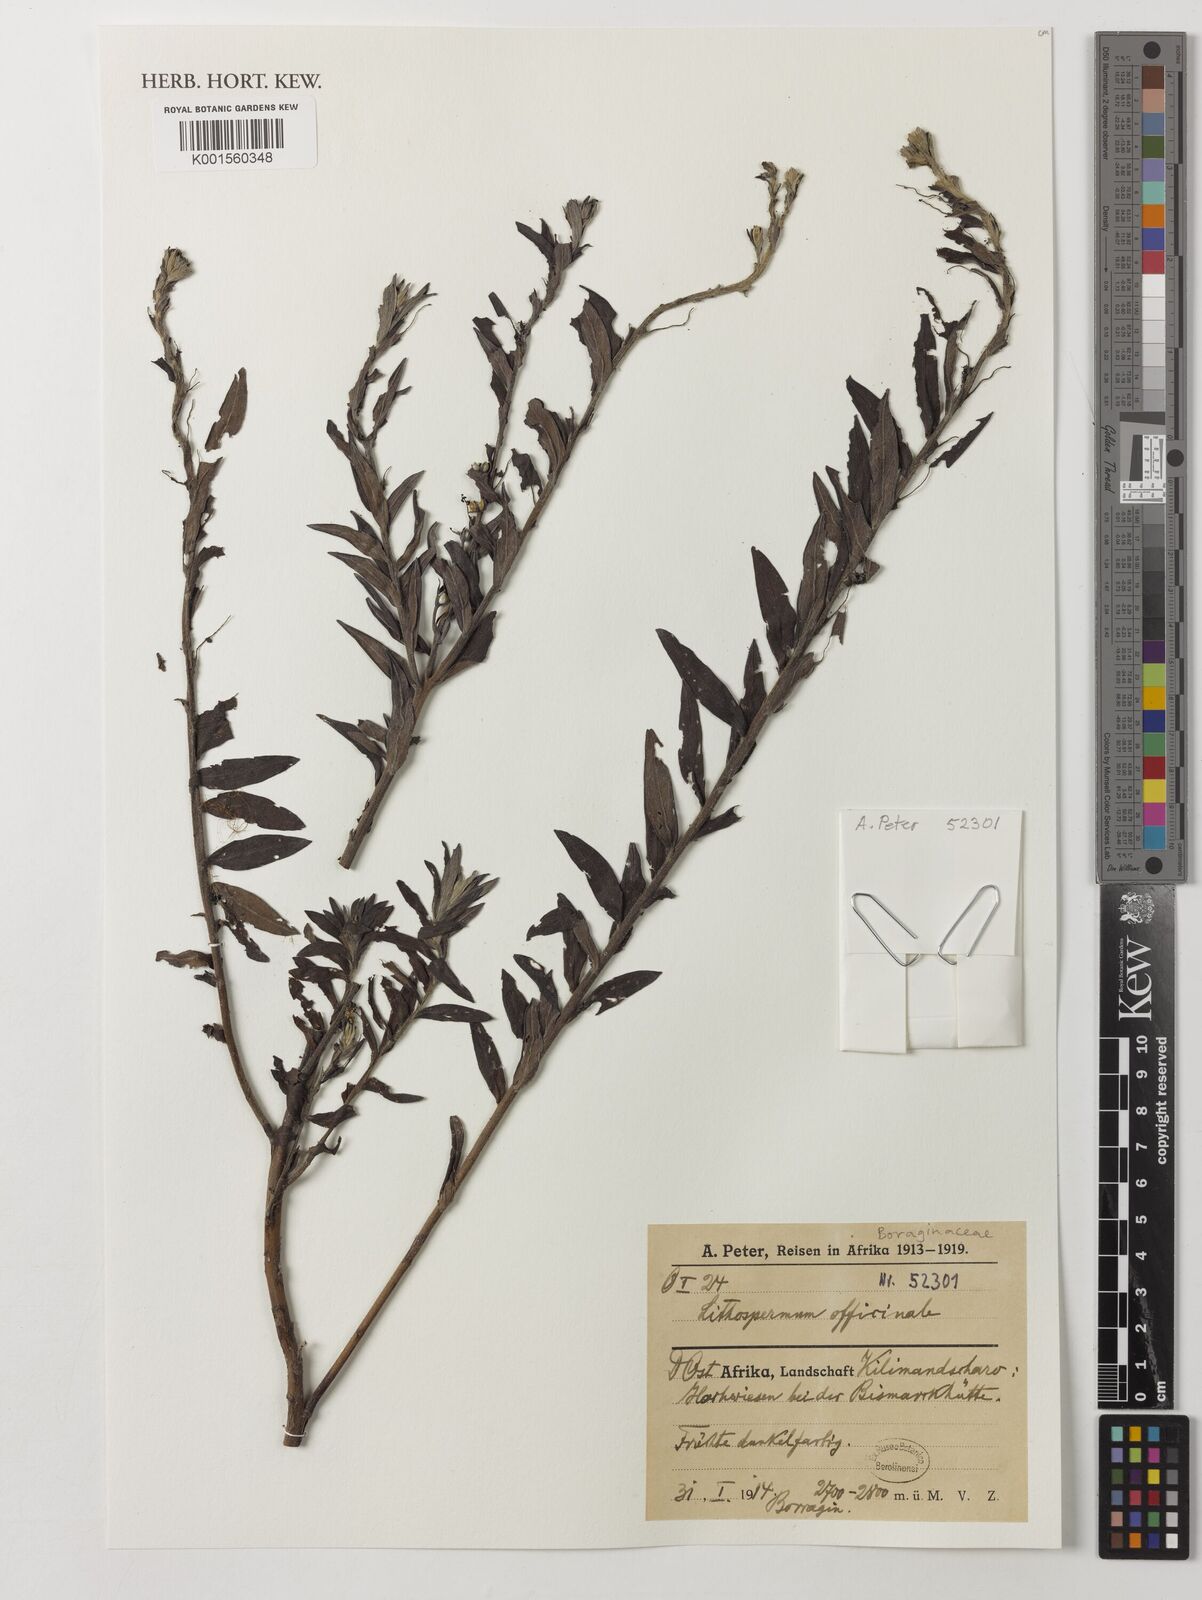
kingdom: Plantae
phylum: Tracheophyta
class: Magnoliopsida
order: Boraginales
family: Boraginaceae
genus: Lithospermum
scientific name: Lithospermum officinale
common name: Common gromwell
